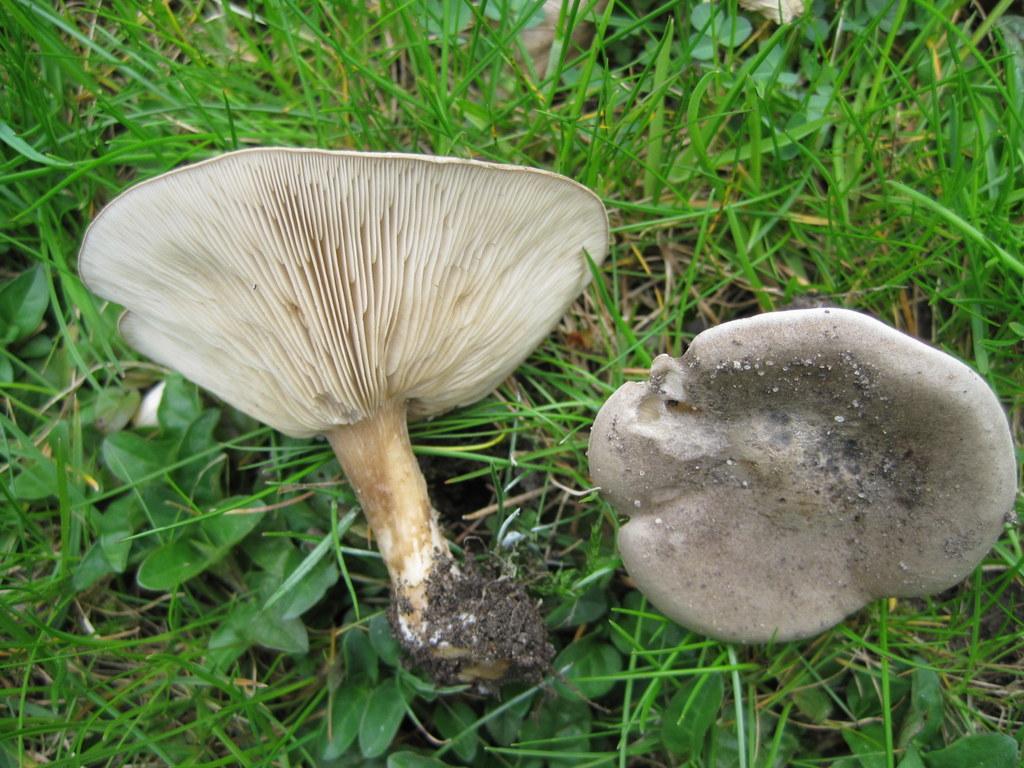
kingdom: Fungi
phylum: Basidiomycota
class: Agaricomycetes
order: Agaricales
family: Tricholomataceae
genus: Melanoleuca
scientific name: Melanoleuca
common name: munkehat
